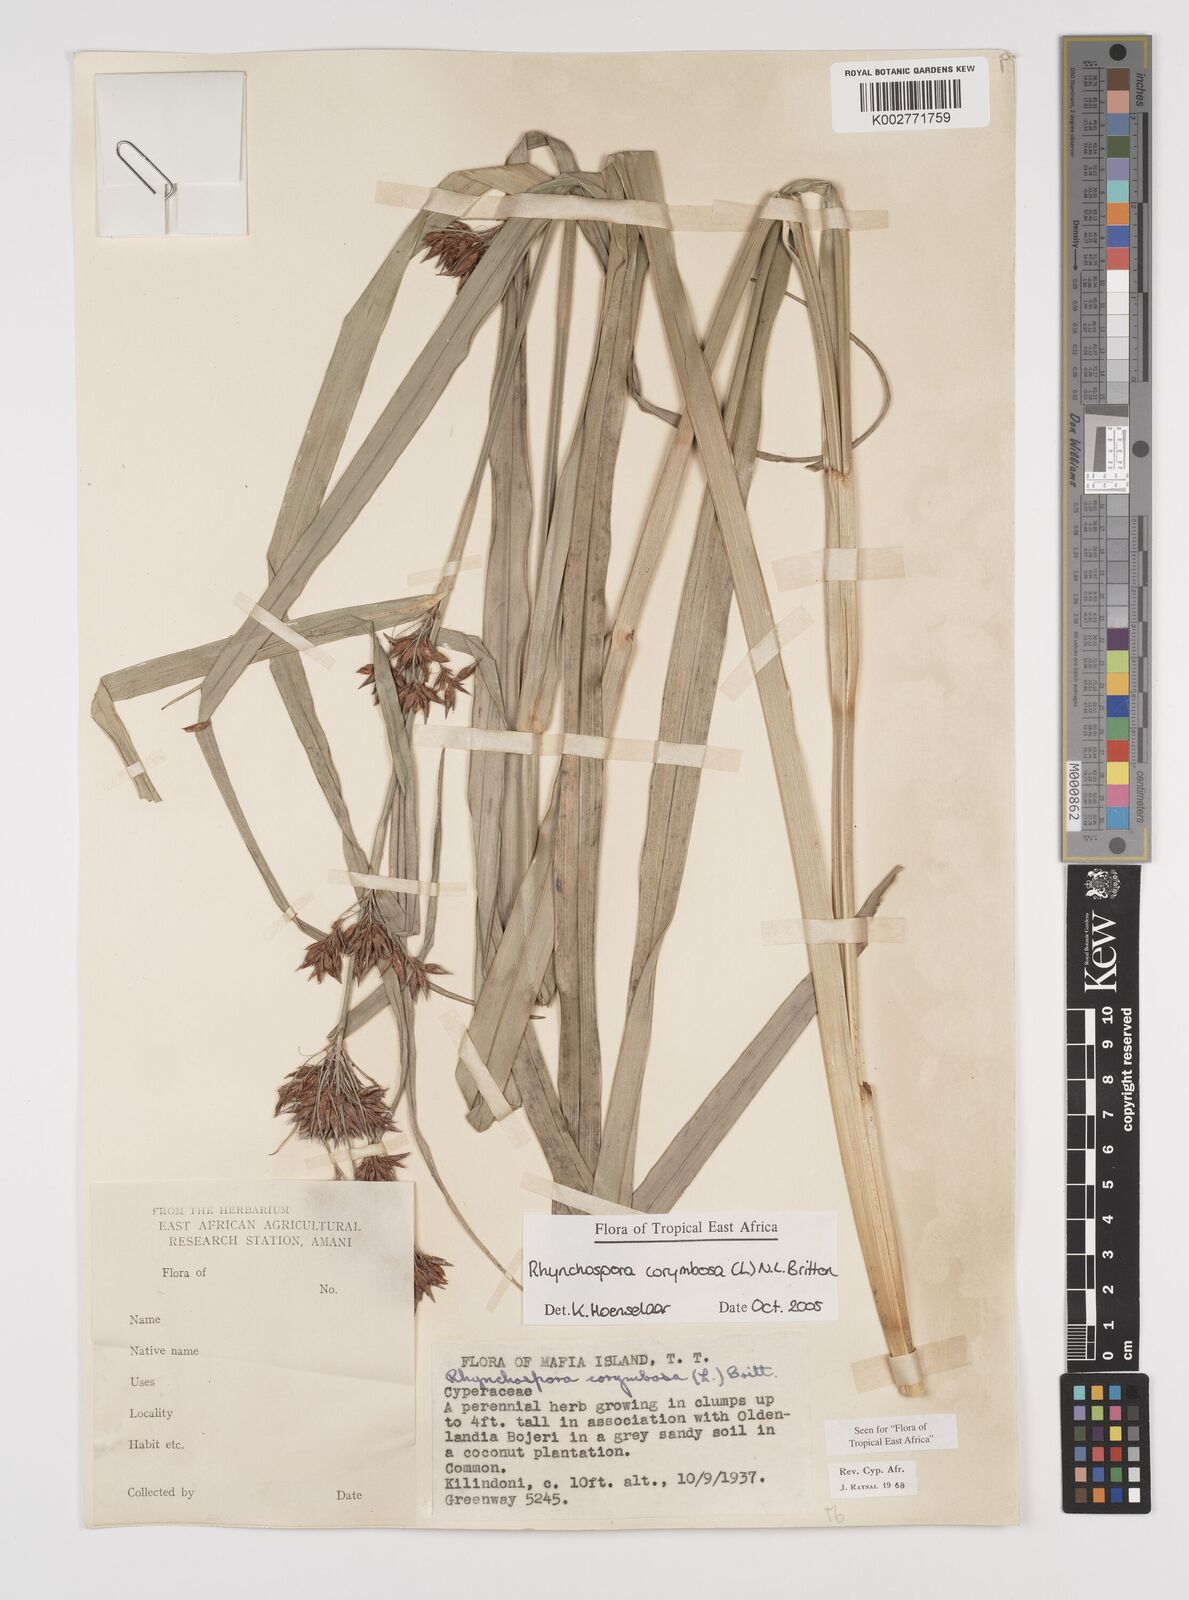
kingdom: Plantae
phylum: Tracheophyta
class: Liliopsida
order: Poales
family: Cyperaceae
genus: Rhynchospora
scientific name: Rhynchospora corymbosa
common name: Golden beak sedge
